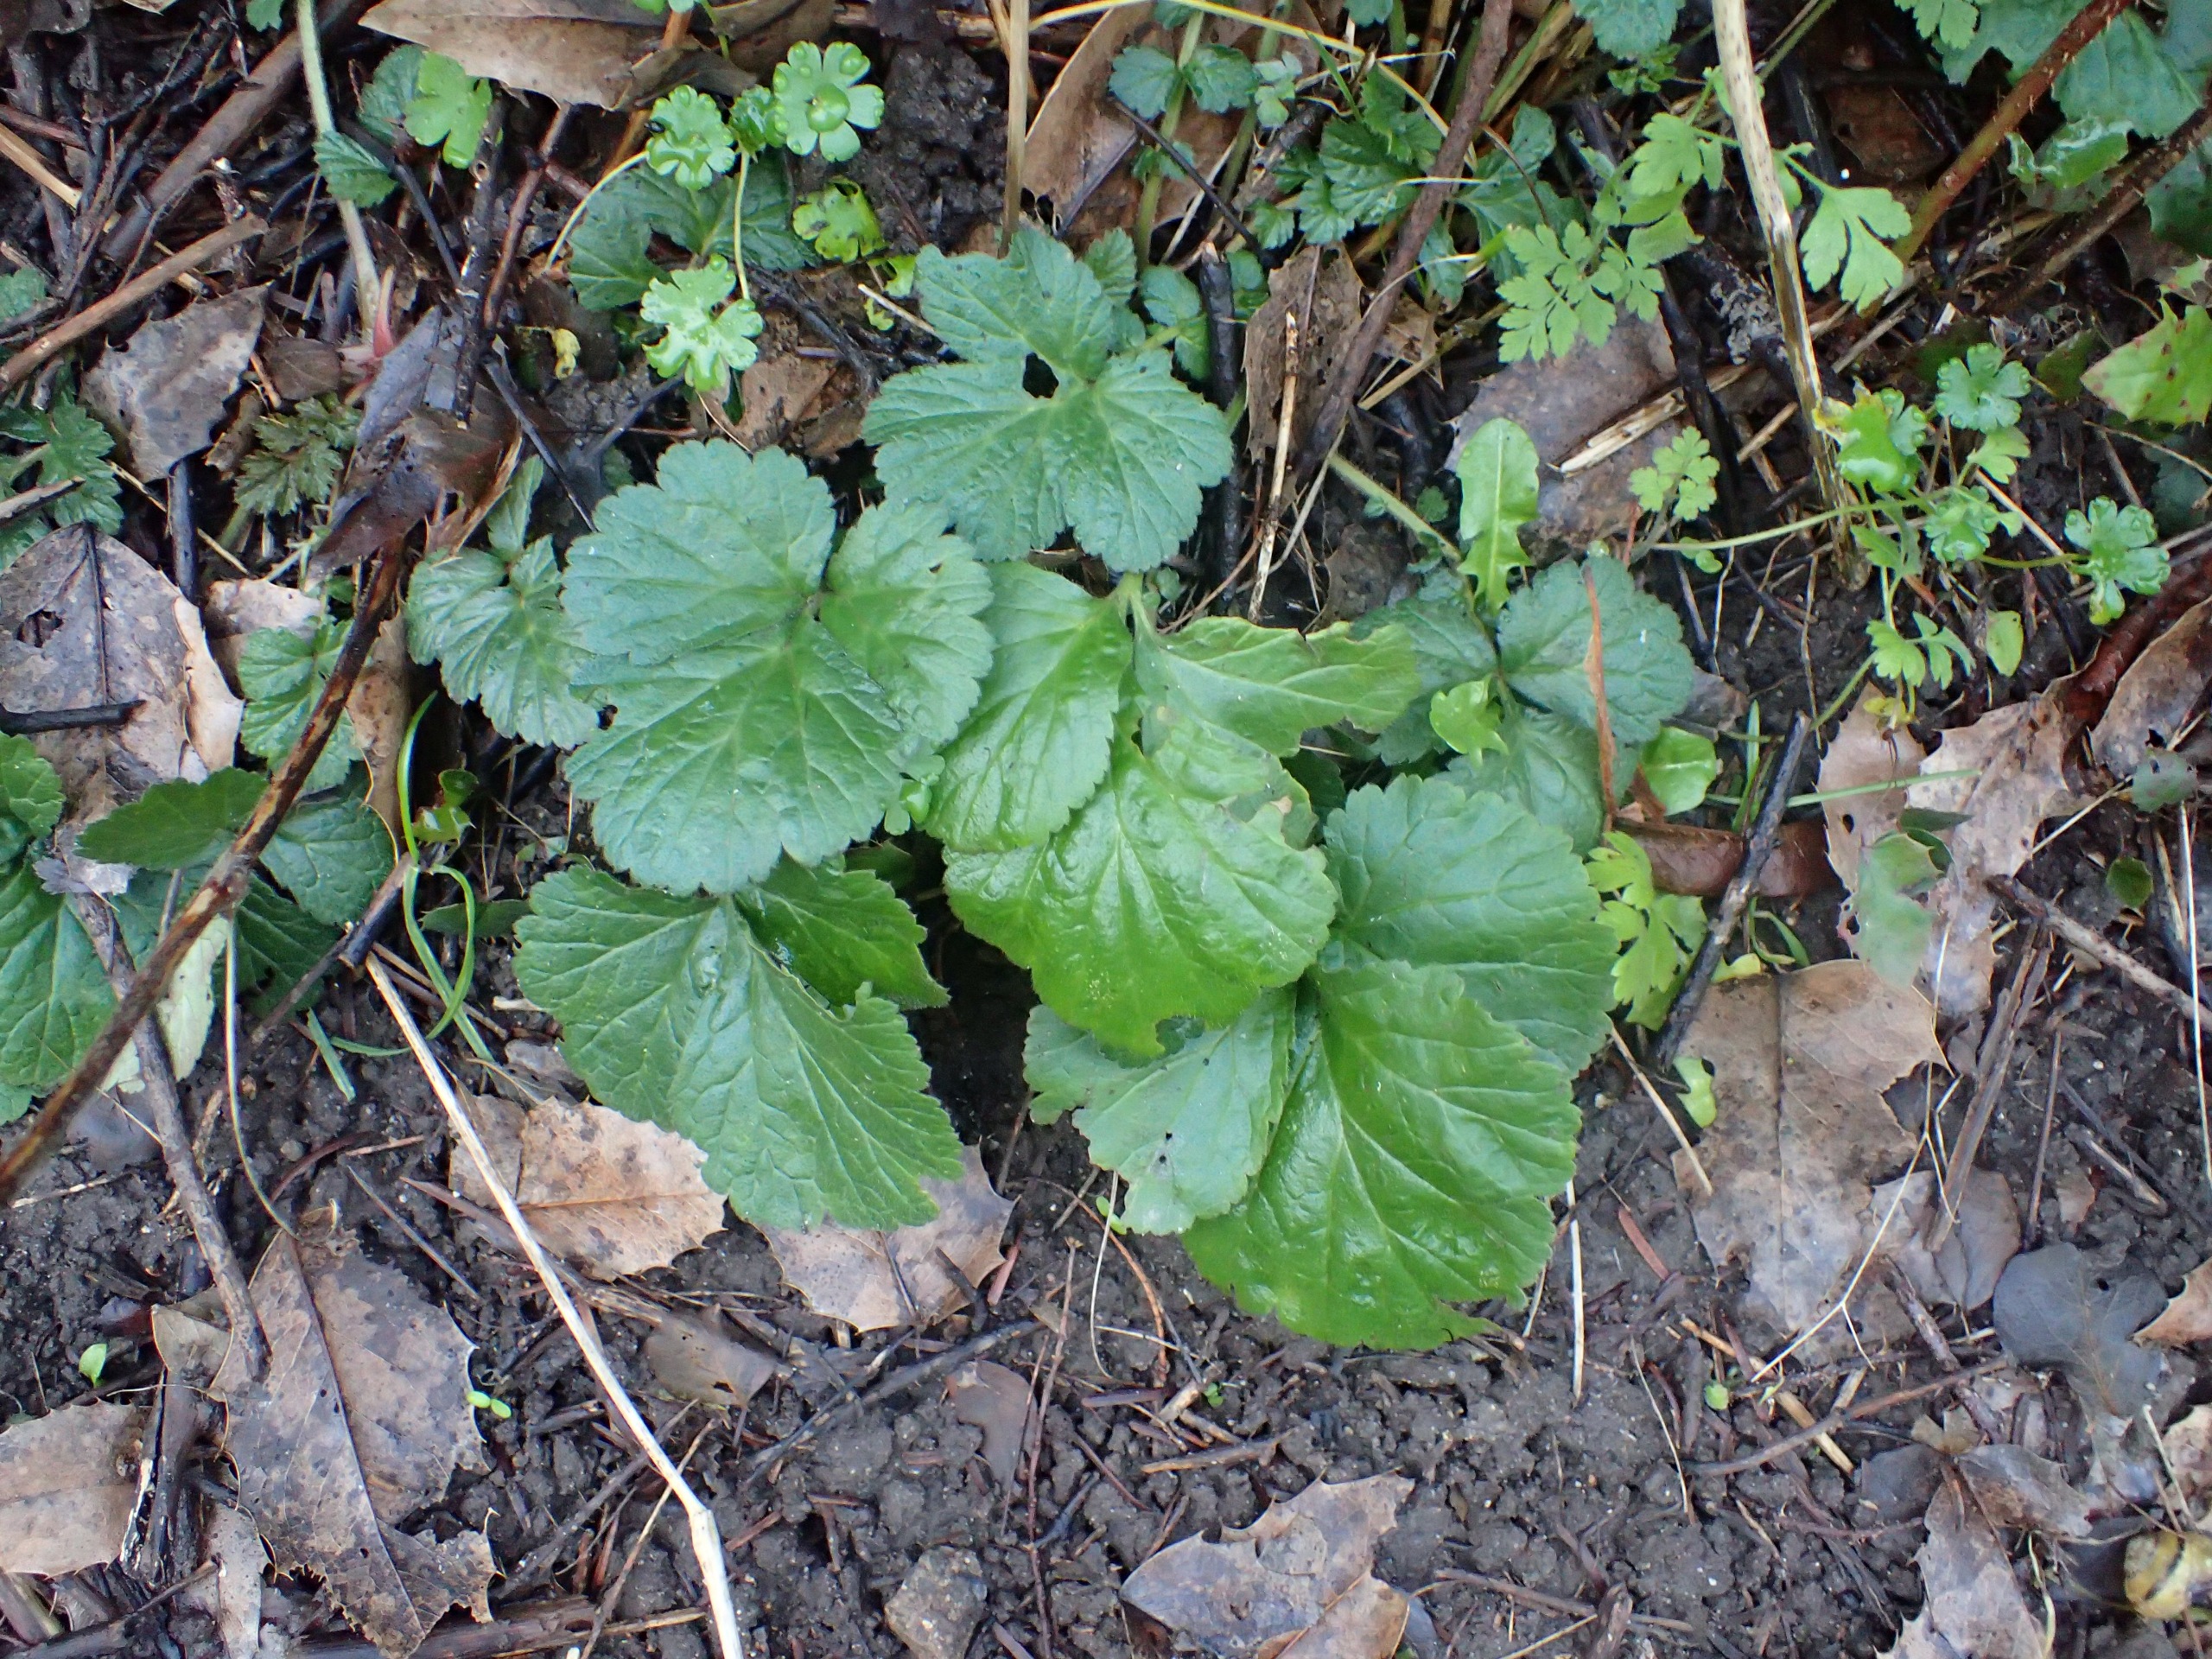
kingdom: Plantae
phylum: Tracheophyta
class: Magnoliopsida
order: Rosales
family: Rosaceae
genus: Geum
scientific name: Geum urbanum
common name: Feber-nellikerod
